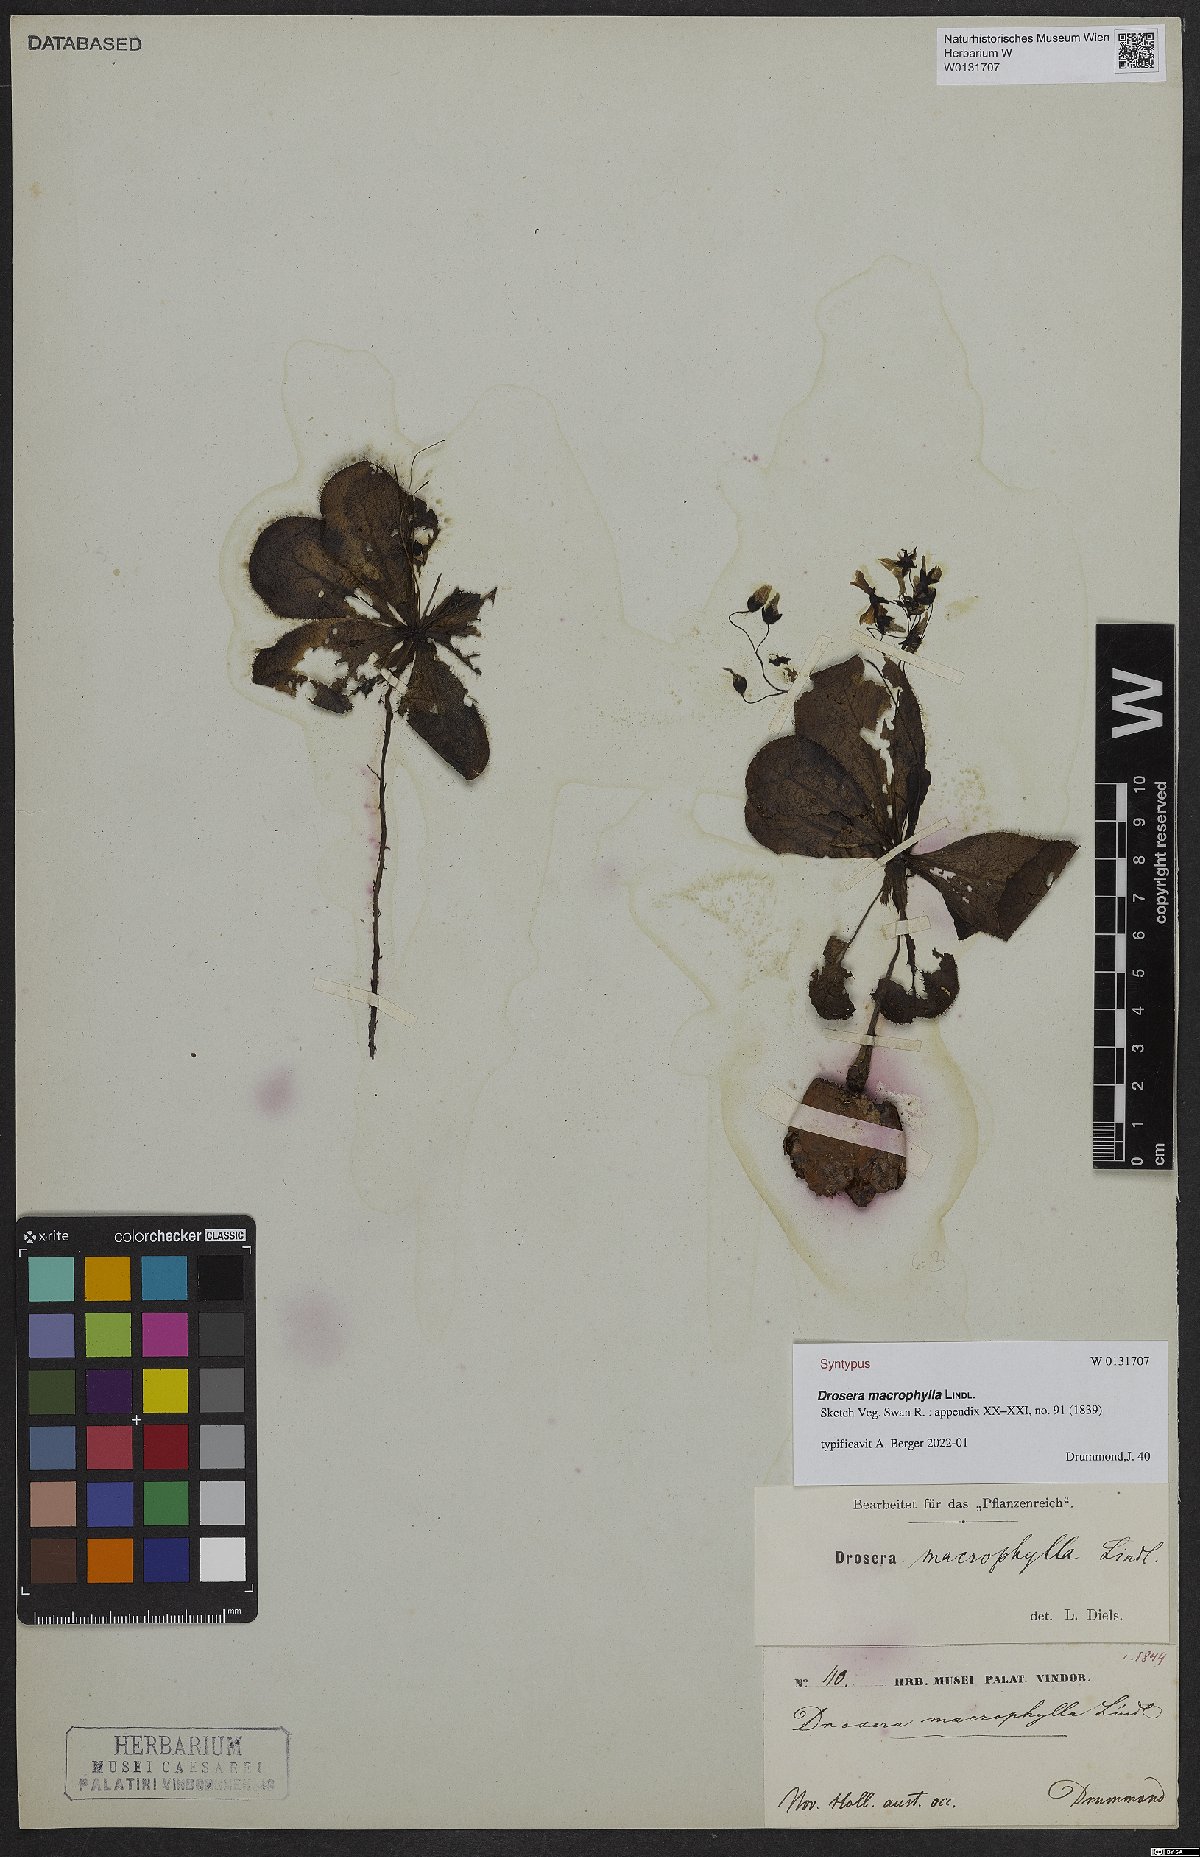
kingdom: Plantae
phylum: Tracheophyta
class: Magnoliopsida
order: Caryophyllales
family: Droseraceae
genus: Drosera
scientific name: Drosera macrophylla
